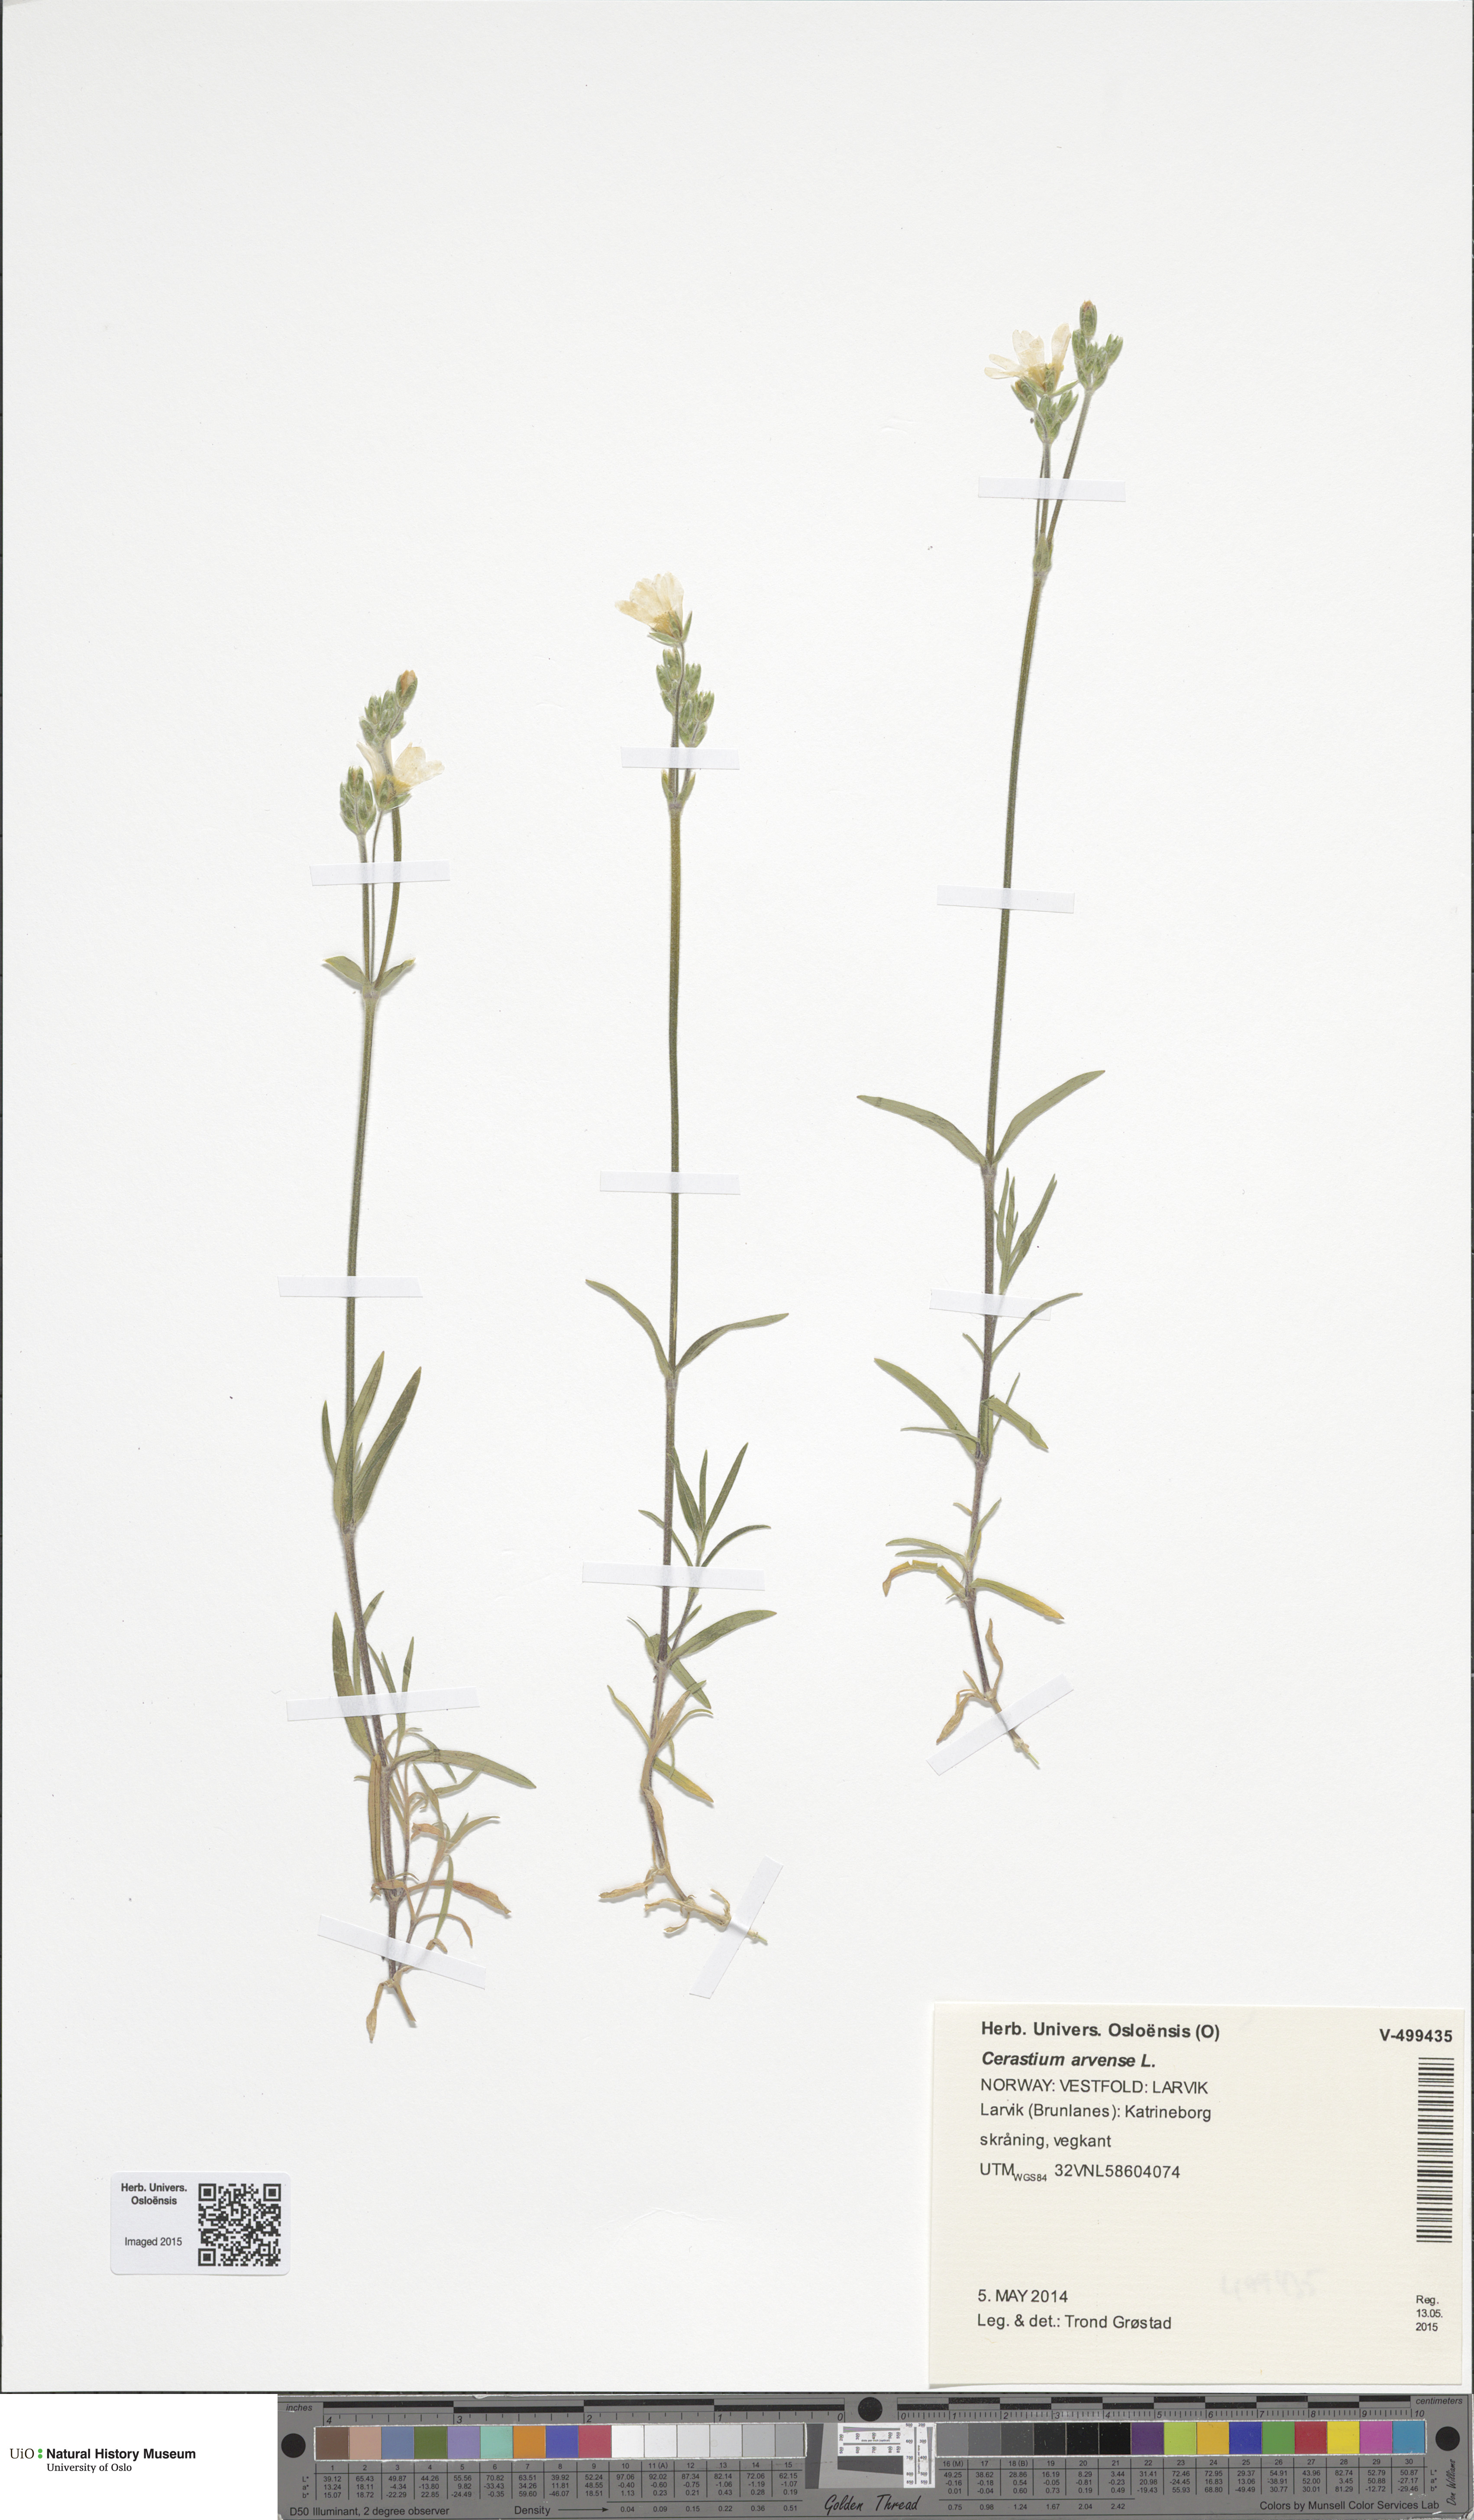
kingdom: Plantae
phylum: Tracheophyta
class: Magnoliopsida
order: Caryophyllales
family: Caryophyllaceae
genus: Cerastium
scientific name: Cerastium arvense
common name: Field mouse-ear
